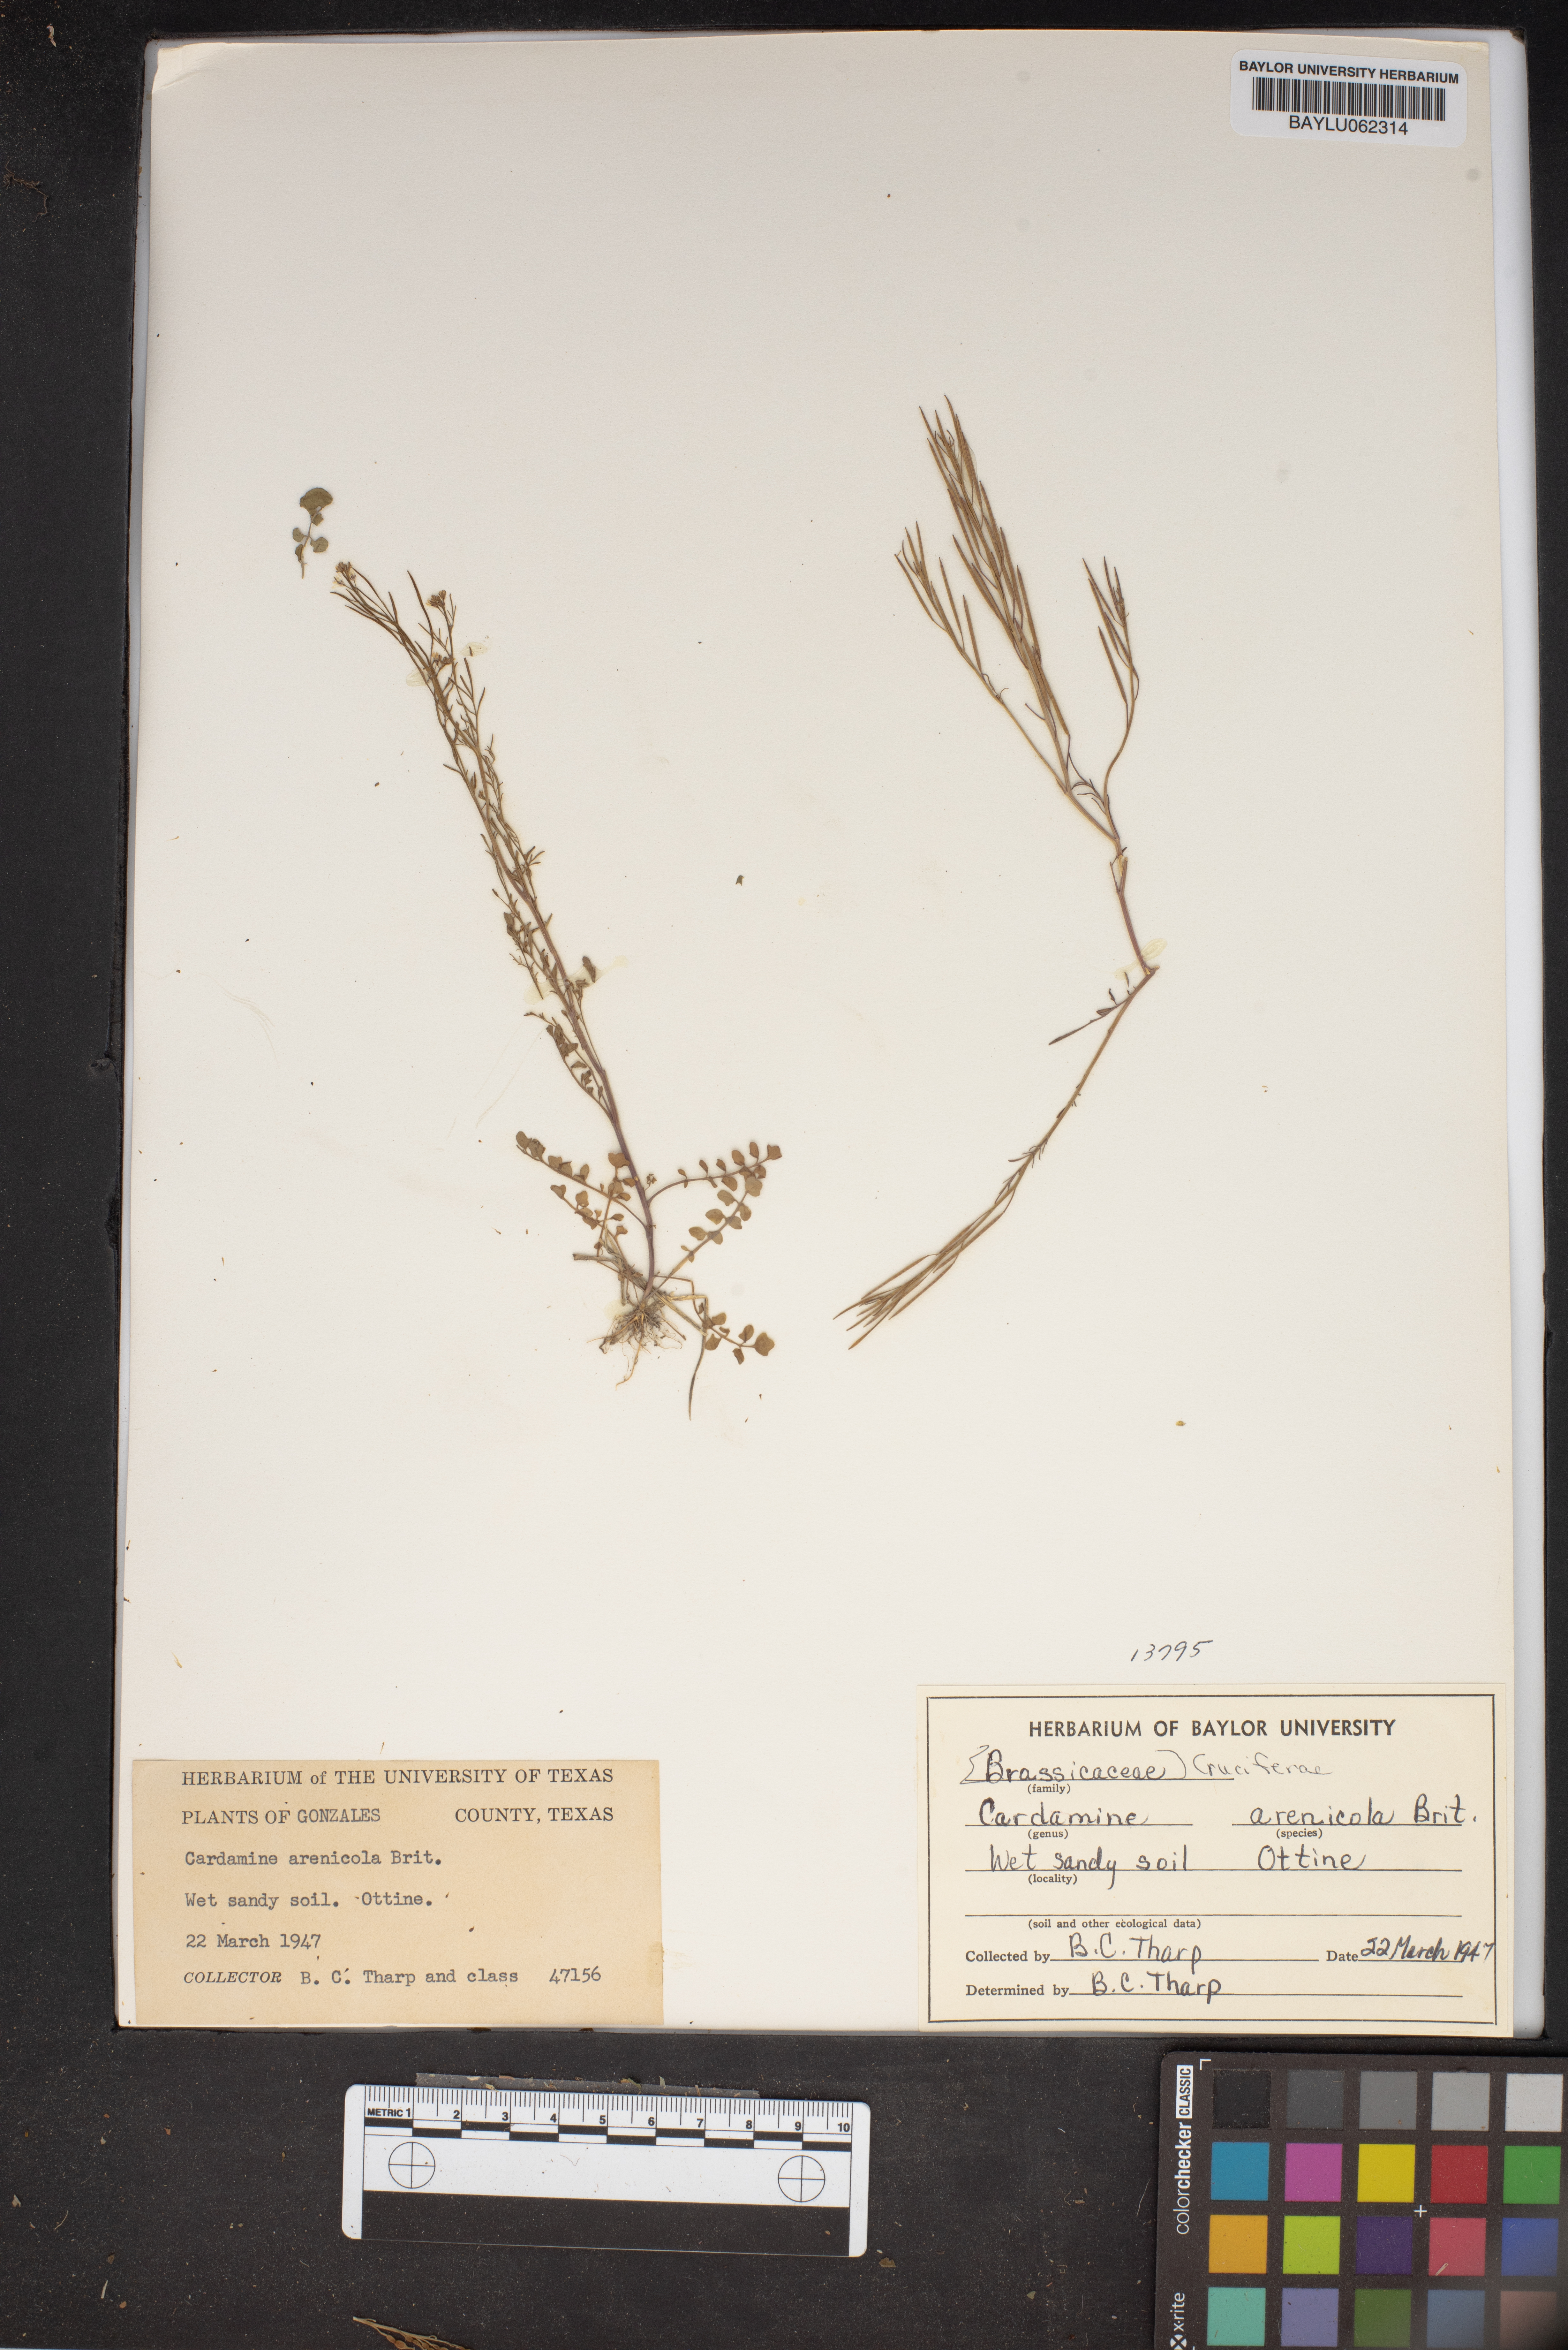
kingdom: Plantae
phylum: Tracheophyta
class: Magnoliopsida
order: Brassicales
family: Brassicaceae
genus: Cardamine
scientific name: Cardamine parviflora
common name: Sand bittercress
